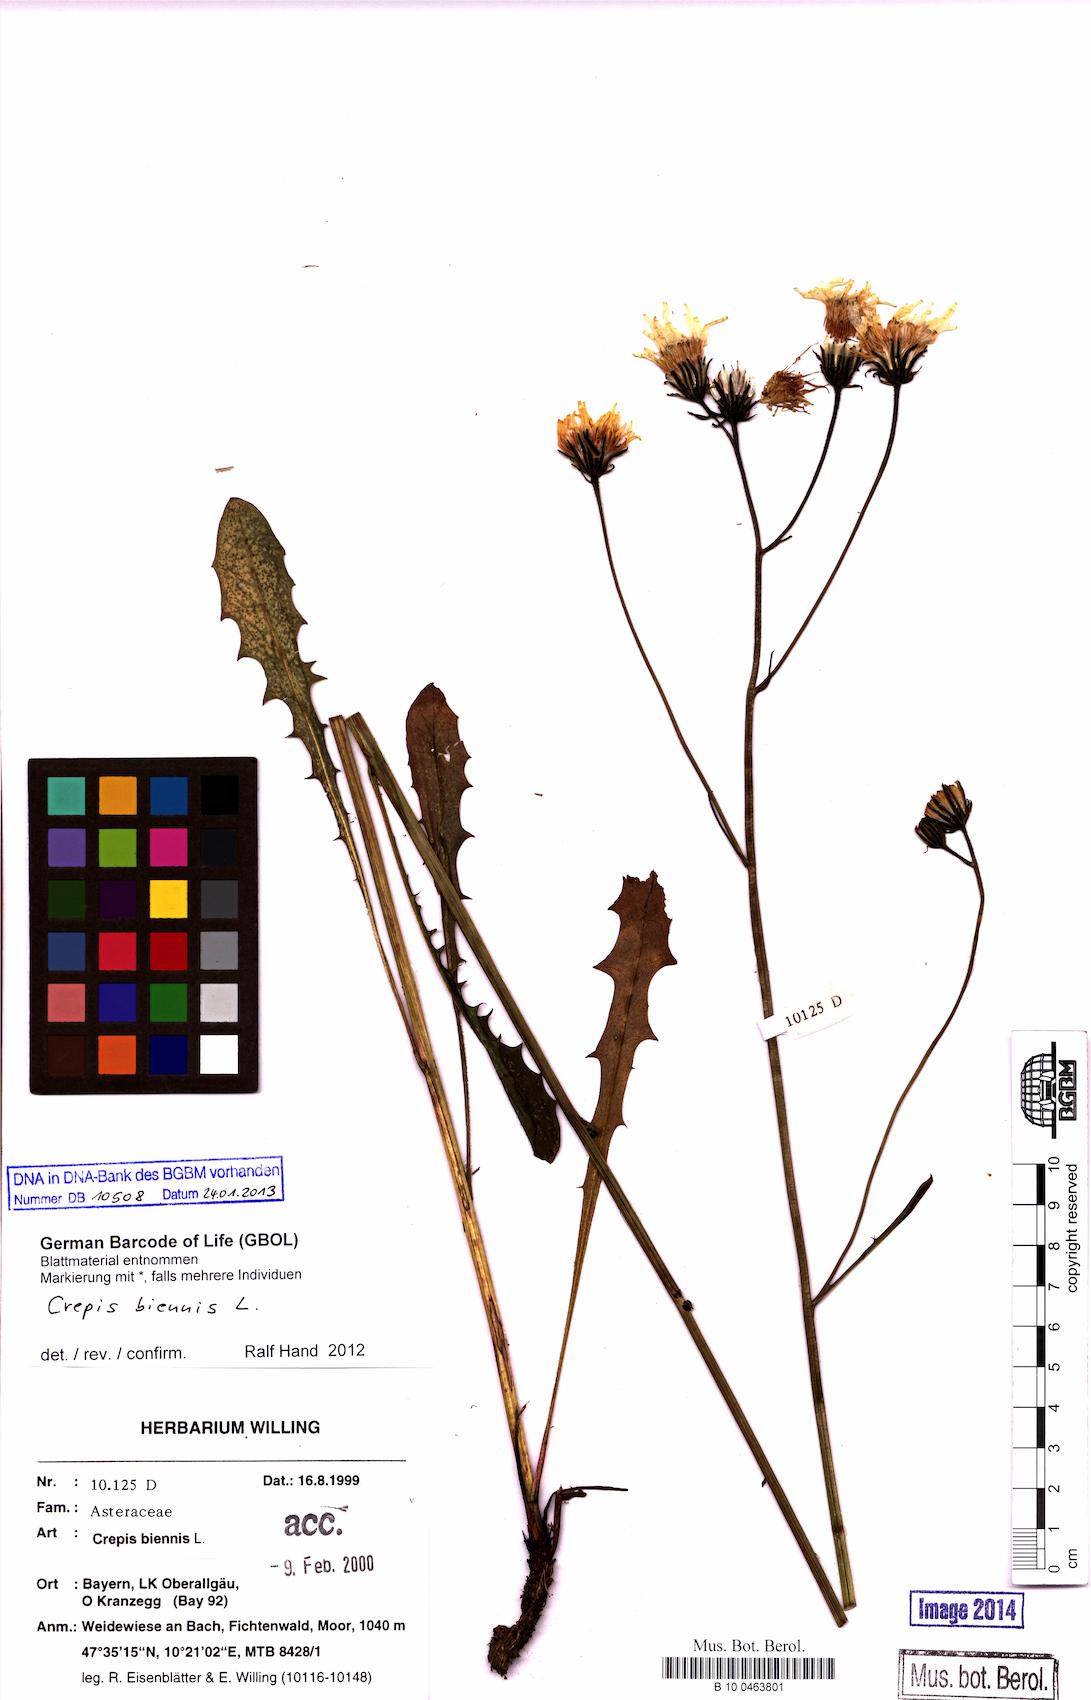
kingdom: Plantae
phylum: Tracheophyta
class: Magnoliopsida
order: Asterales
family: Asteraceae
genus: Crepis
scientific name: Crepis biennis
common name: Rough hawk's-beard
